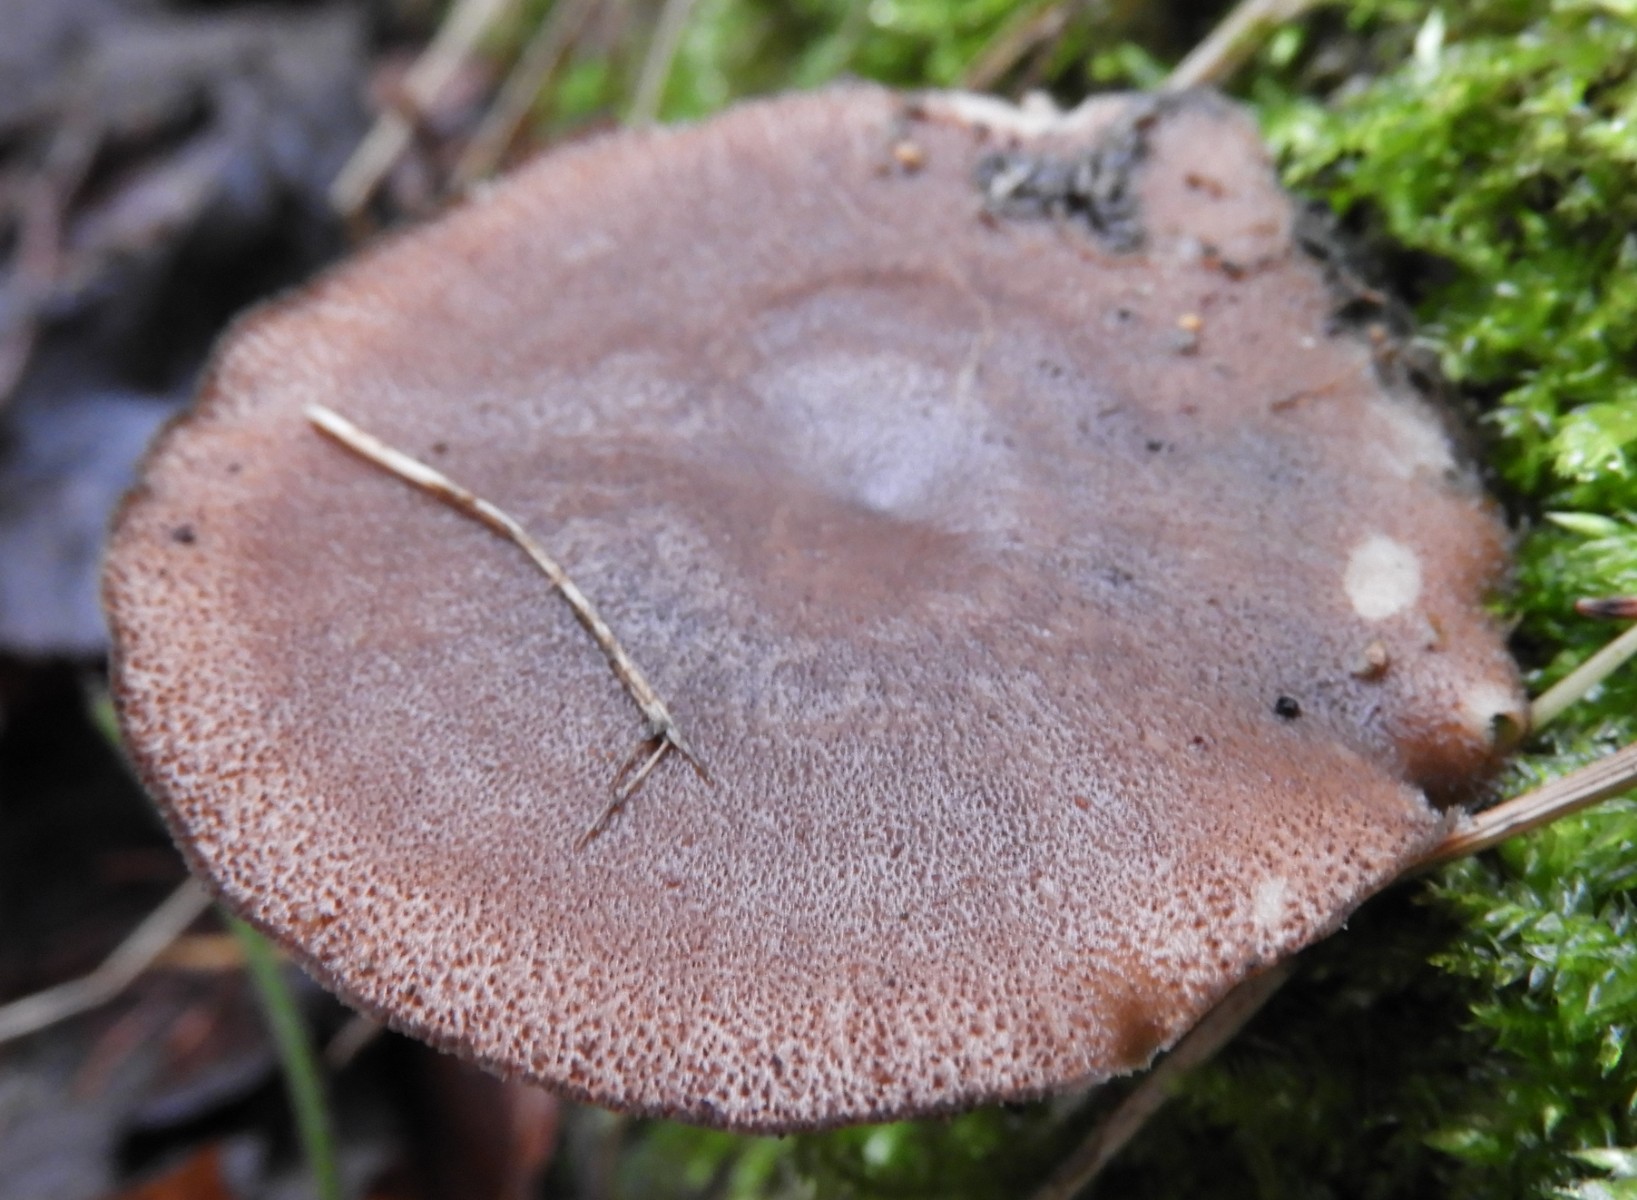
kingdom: Fungi
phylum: Basidiomycota
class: Agaricomycetes
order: Polyporales
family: Polyporaceae
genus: Lentinus
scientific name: Lentinus brumalis
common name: vinter-stilkporesvamp
